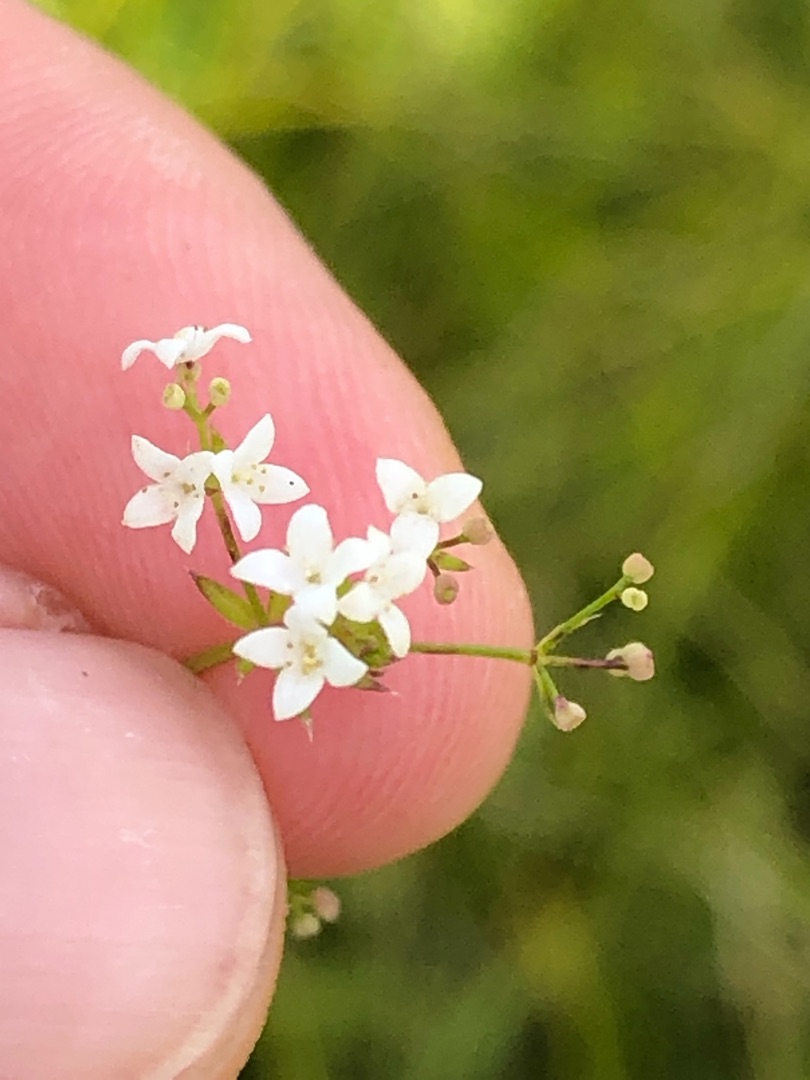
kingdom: Plantae
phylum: Tracheophyta
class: Magnoliopsida
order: Gentianales
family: Rubiaceae
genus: Galium
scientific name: Galium uliginosum
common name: Sump-snerre
